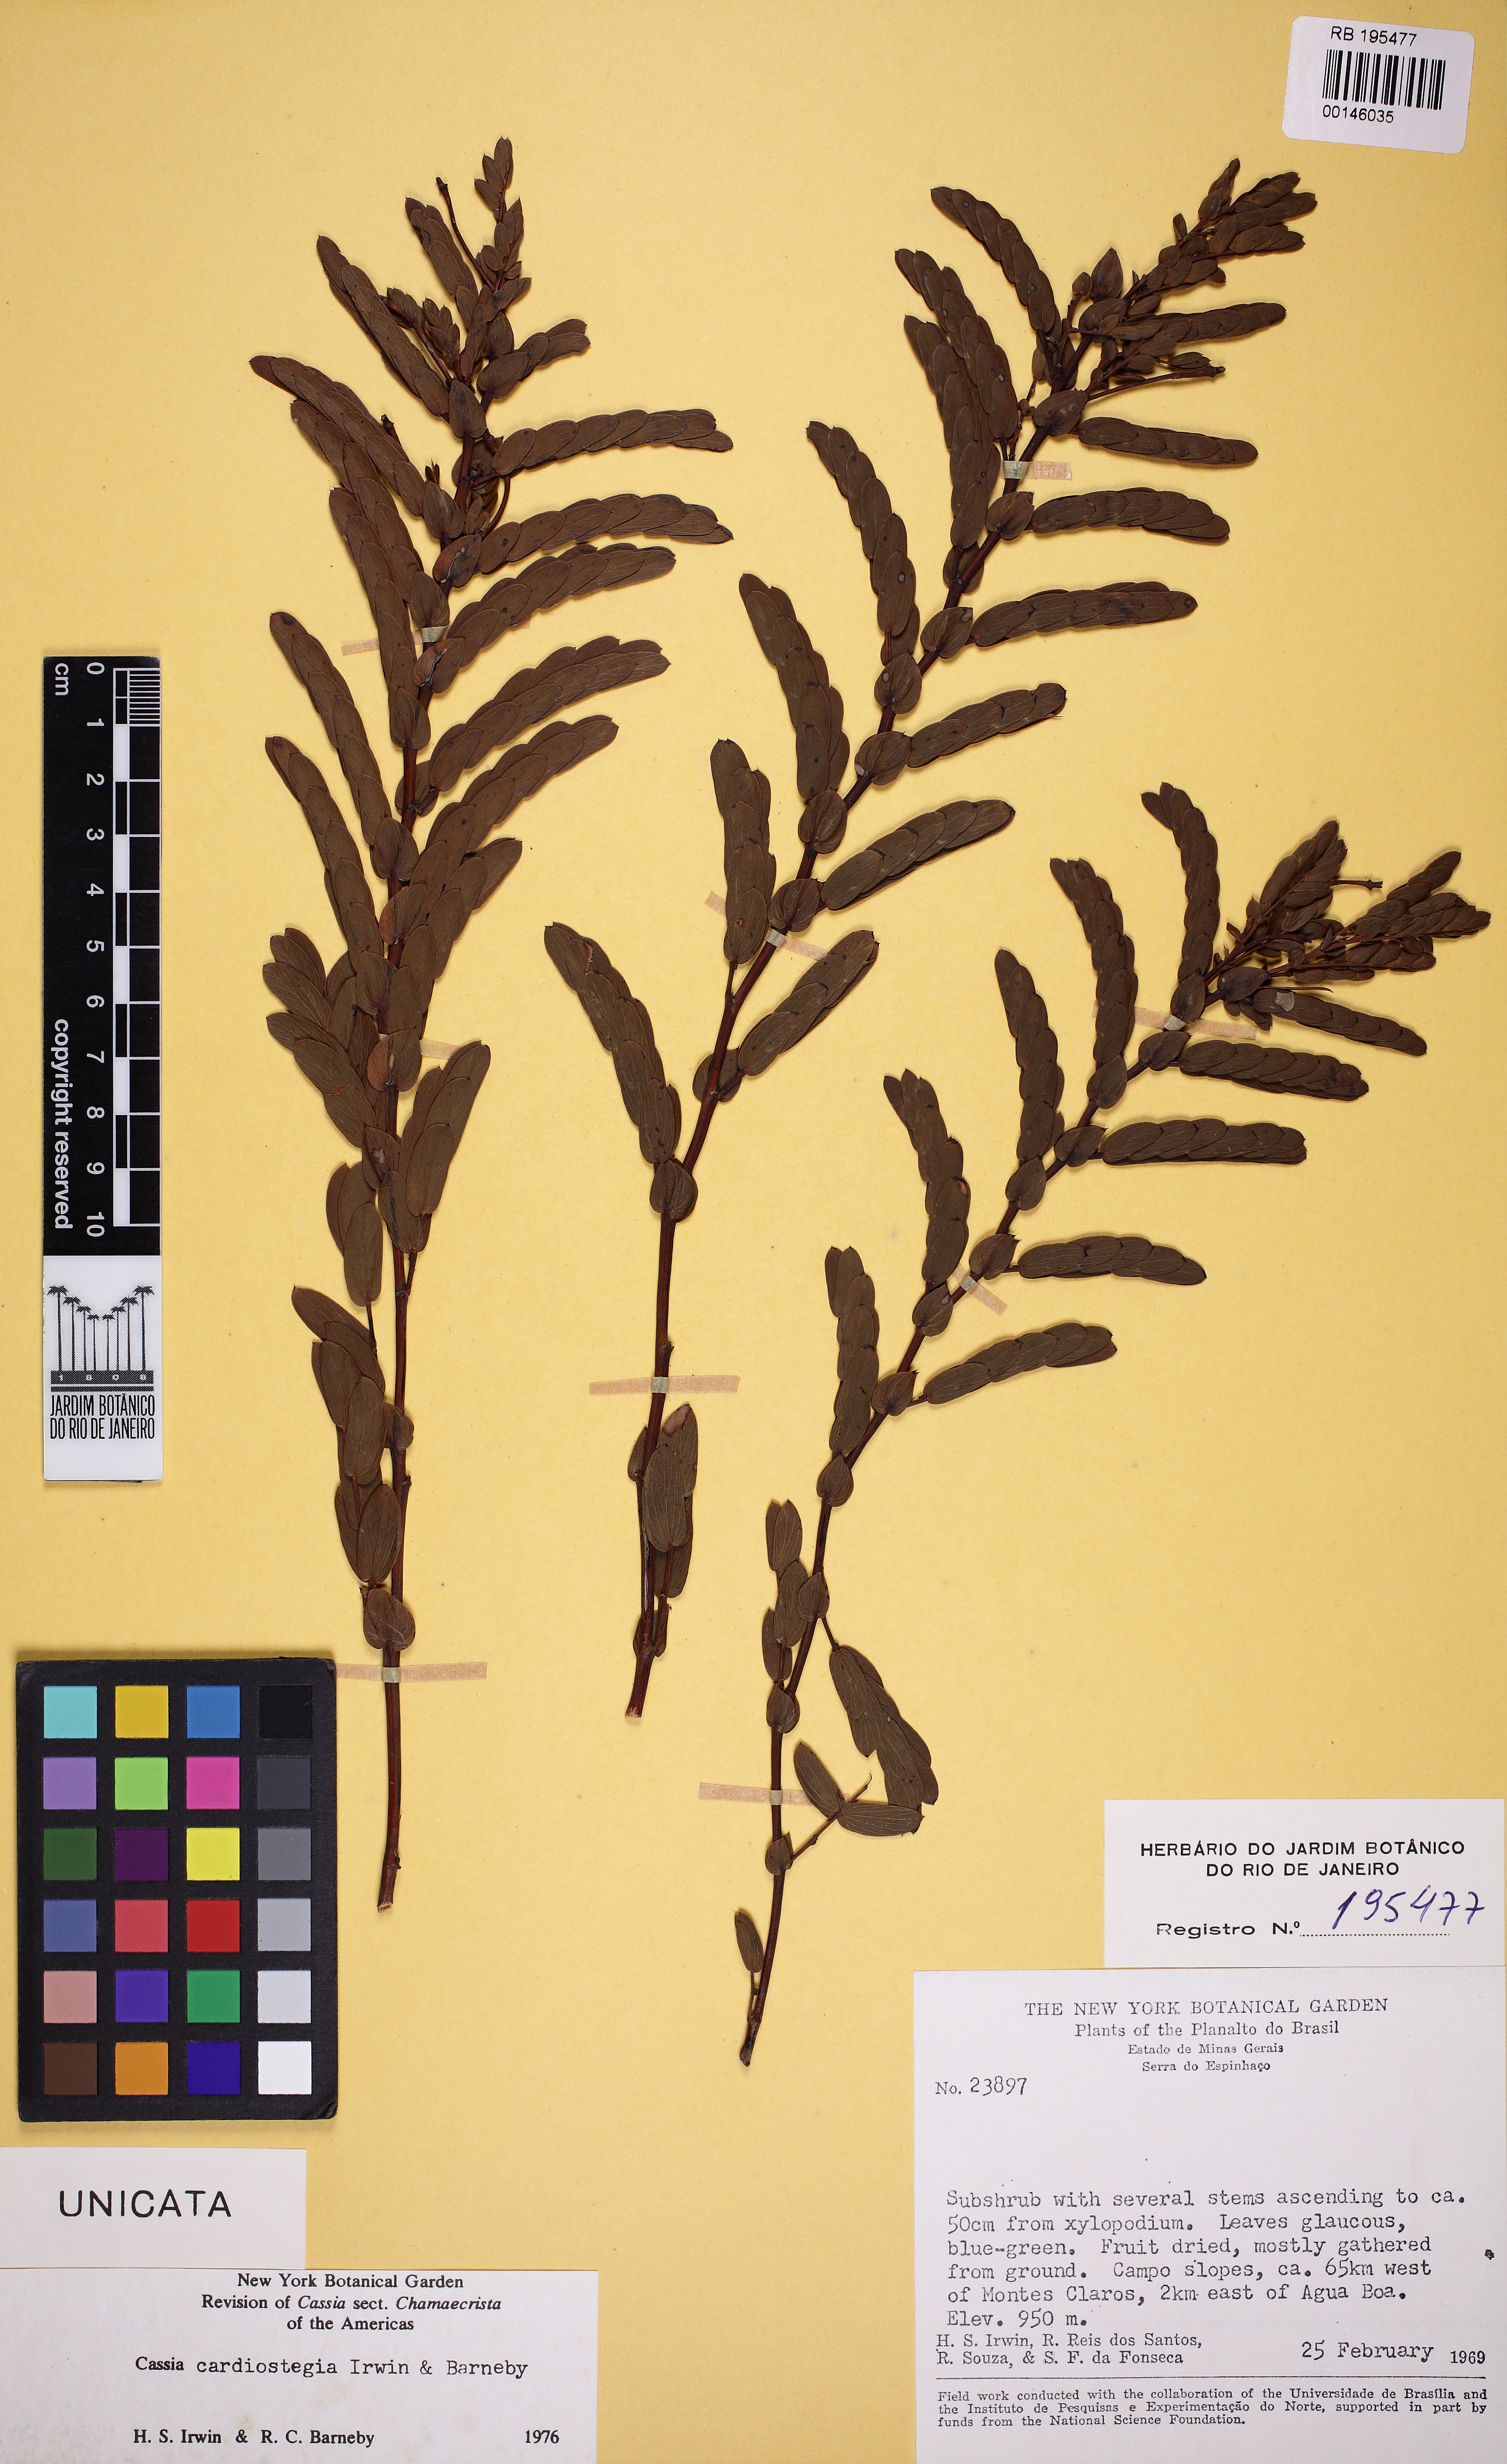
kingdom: Plantae
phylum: Tracheophyta
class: Magnoliopsida
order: Fabales
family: Fabaceae
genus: Chamaecrista
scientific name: Chamaecrista cardiostegia
